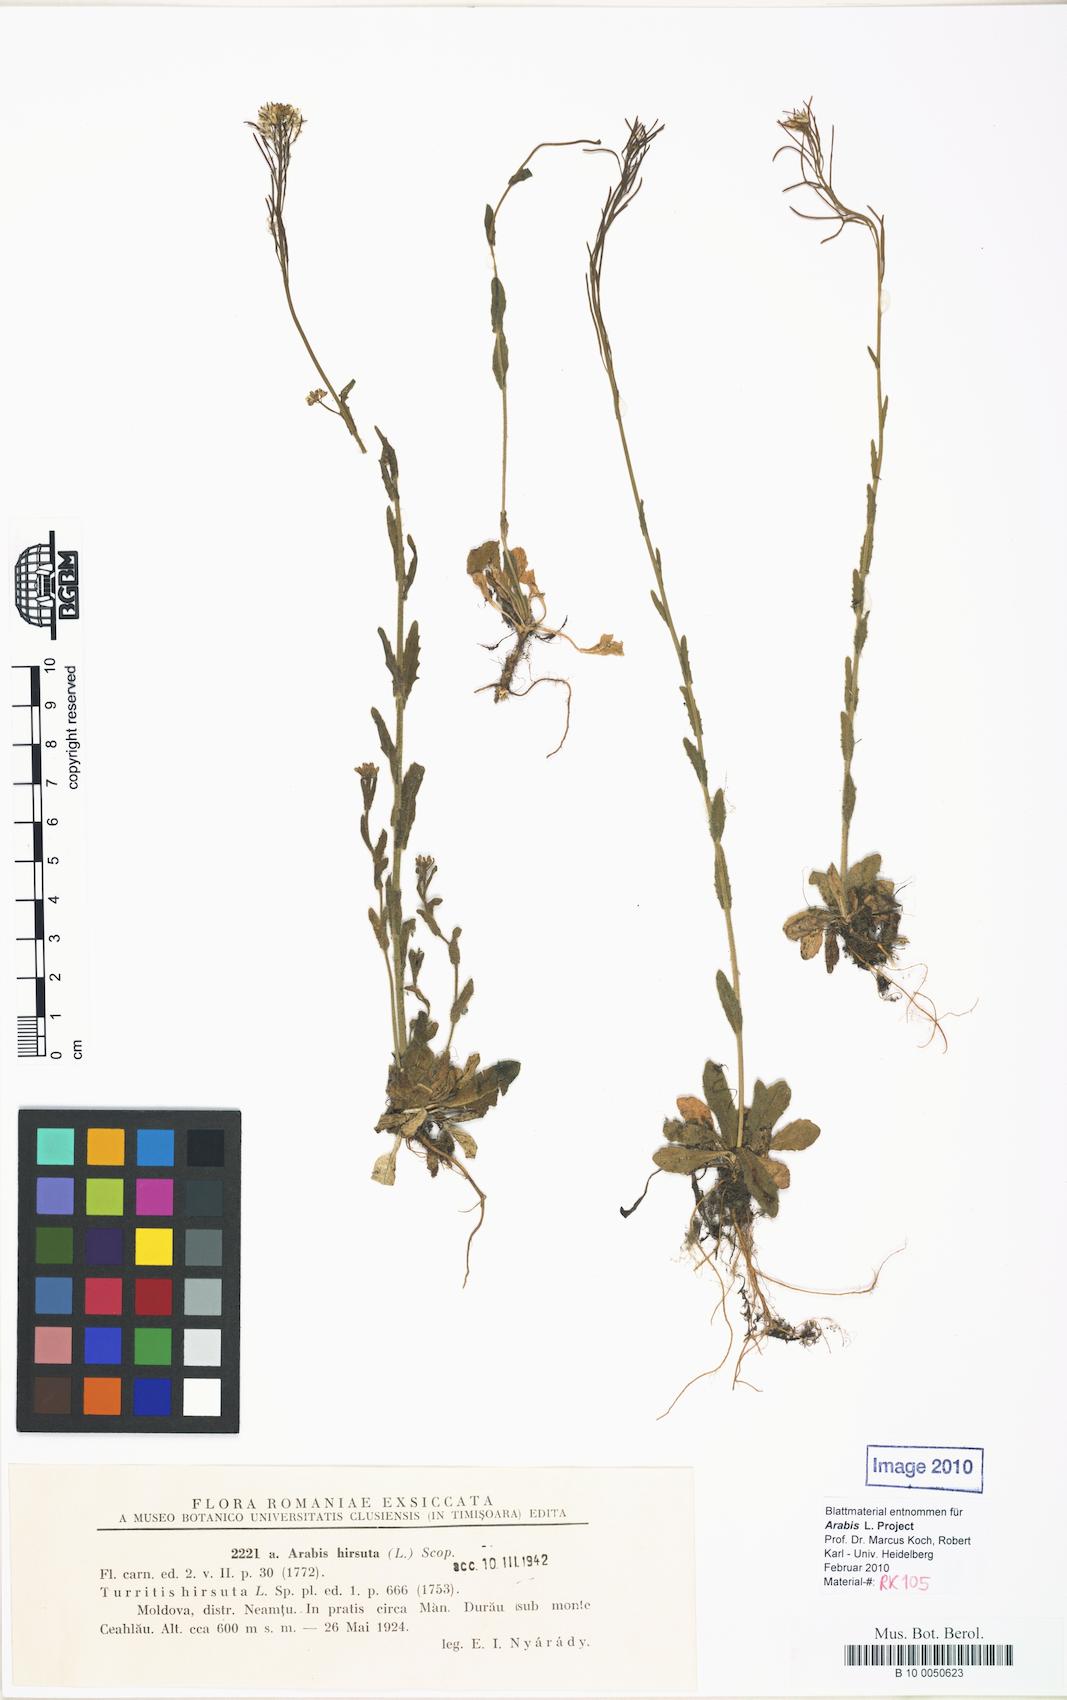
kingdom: Plantae
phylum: Tracheophyta
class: Magnoliopsida
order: Brassicales
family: Brassicaceae
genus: Arabis
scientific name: Arabis hirsuta
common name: Hairy rock-cress
